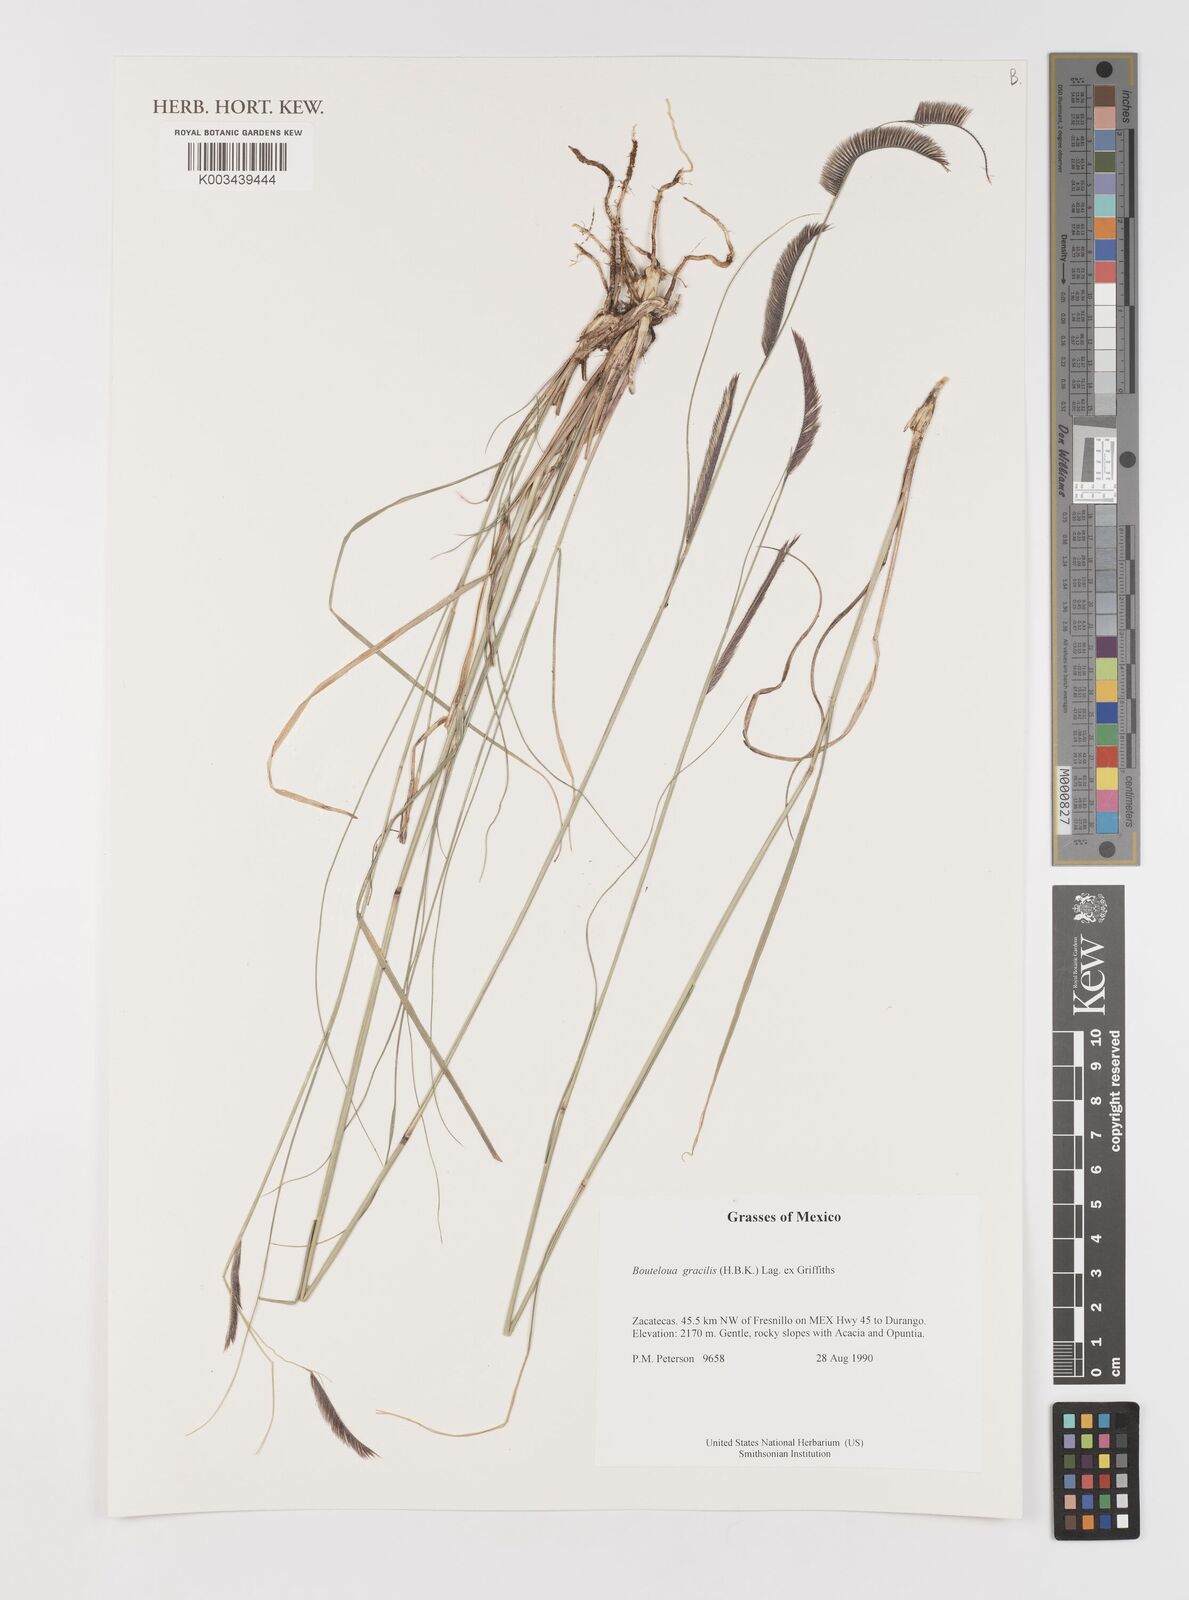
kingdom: Plantae
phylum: Tracheophyta
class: Liliopsida
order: Poales
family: Poaceae
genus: Bouteloua
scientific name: Bouteloua aristidoides
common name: Needle grama
